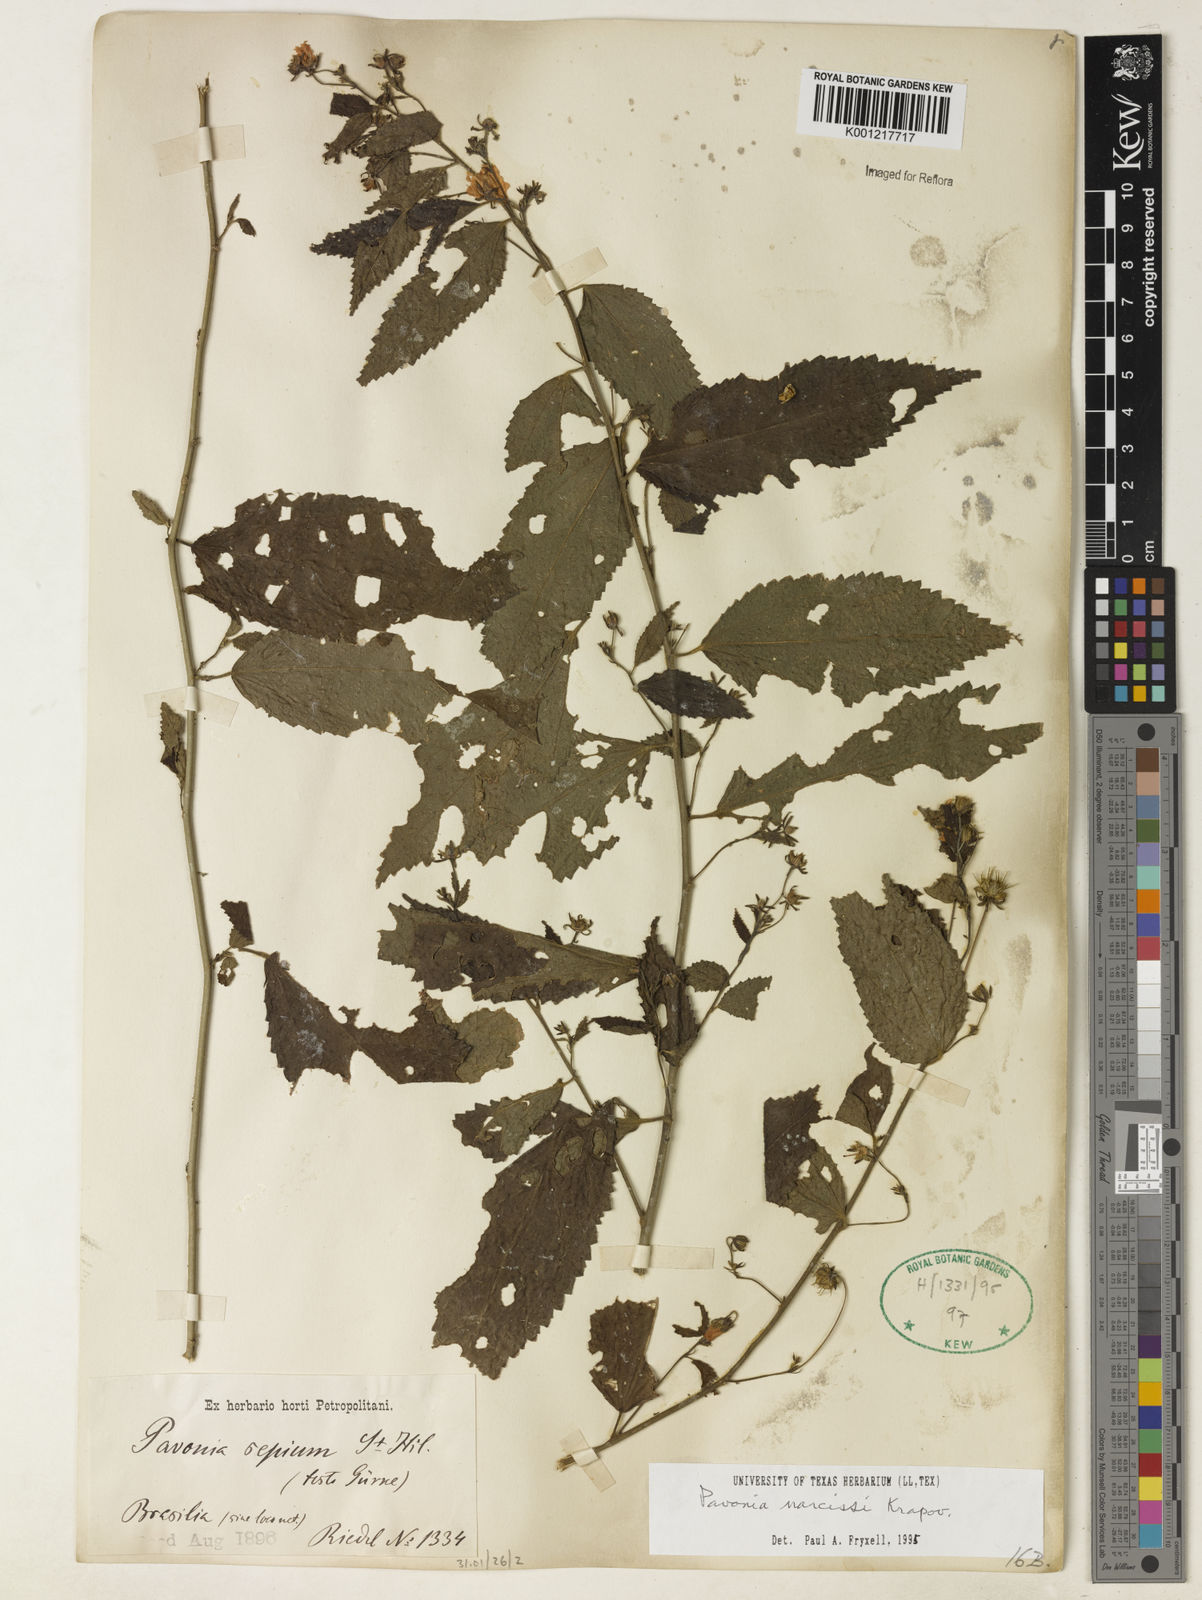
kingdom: Plantae
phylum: Tracheophyta
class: Magnoliopsida
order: Malvales
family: Malvaceae
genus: Pavonia
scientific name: Pavonia sepium
